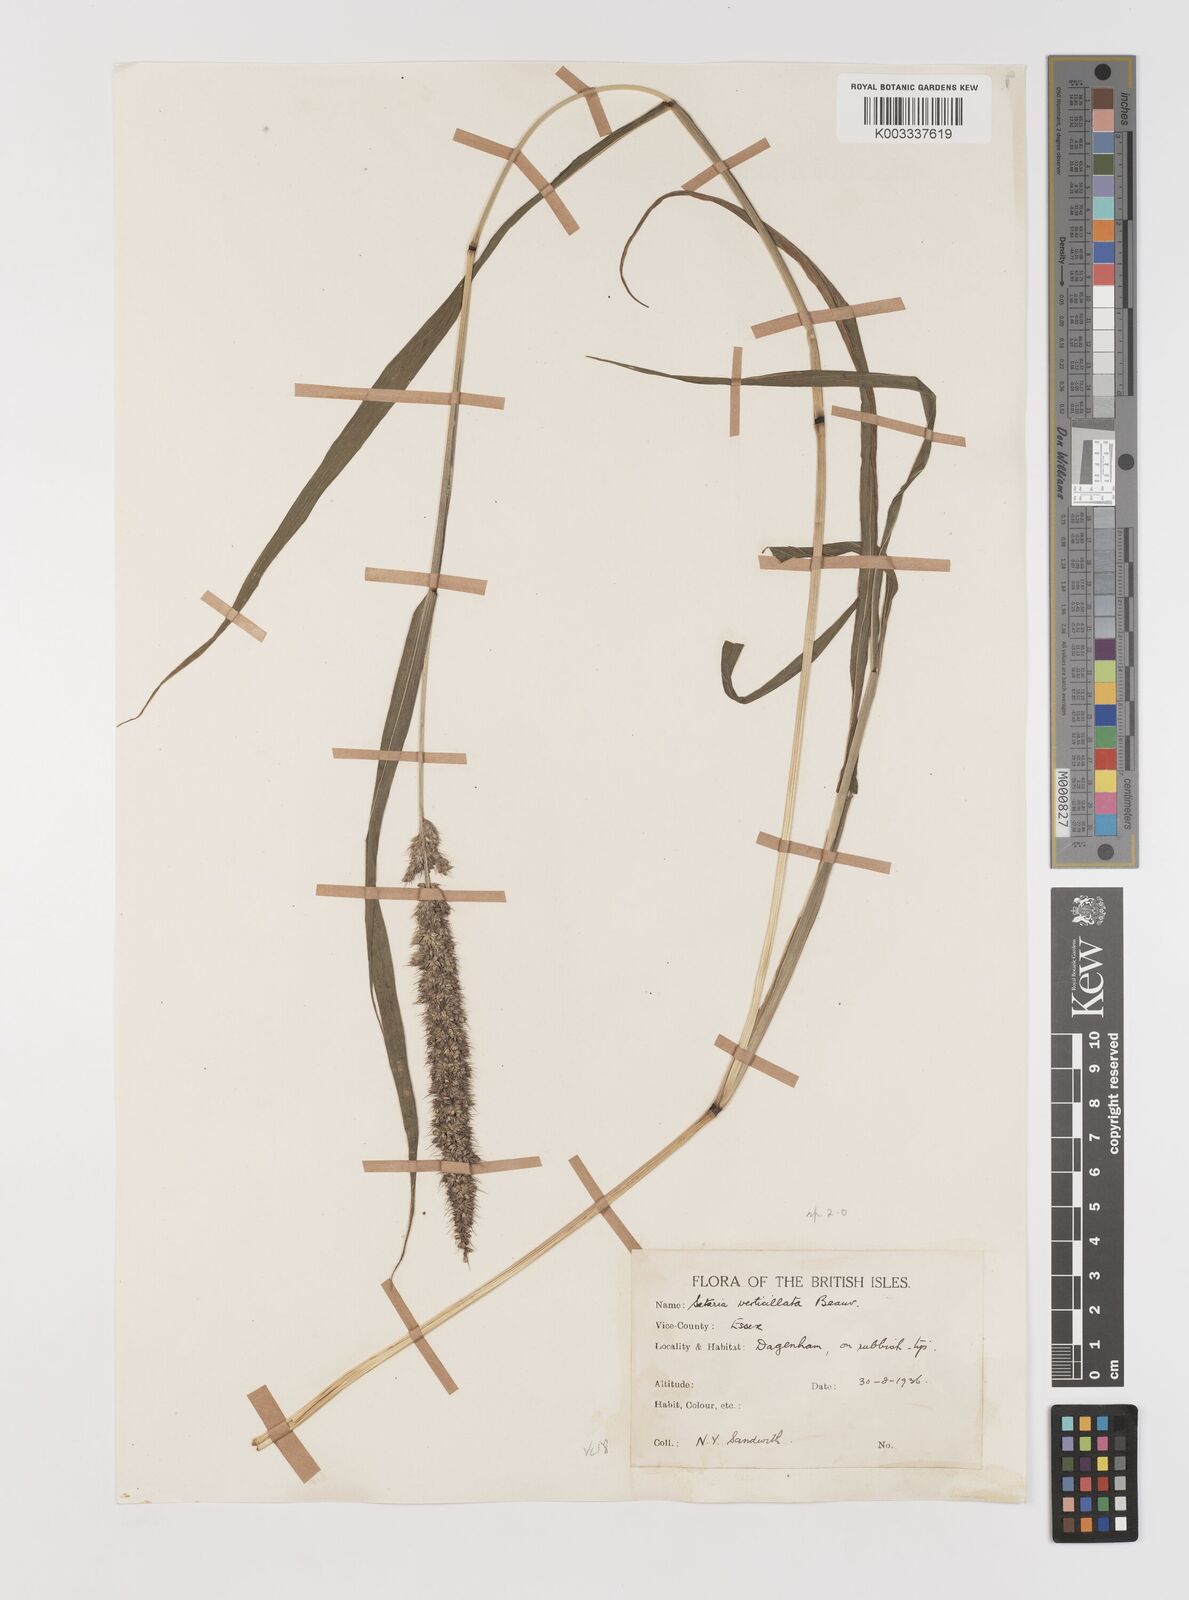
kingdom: Plantae
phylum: Tracheophyta
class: Liliopsida
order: Poales
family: Poaceae
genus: Setaria
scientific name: Setaria verticillata
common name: Hooked bristlegrass
